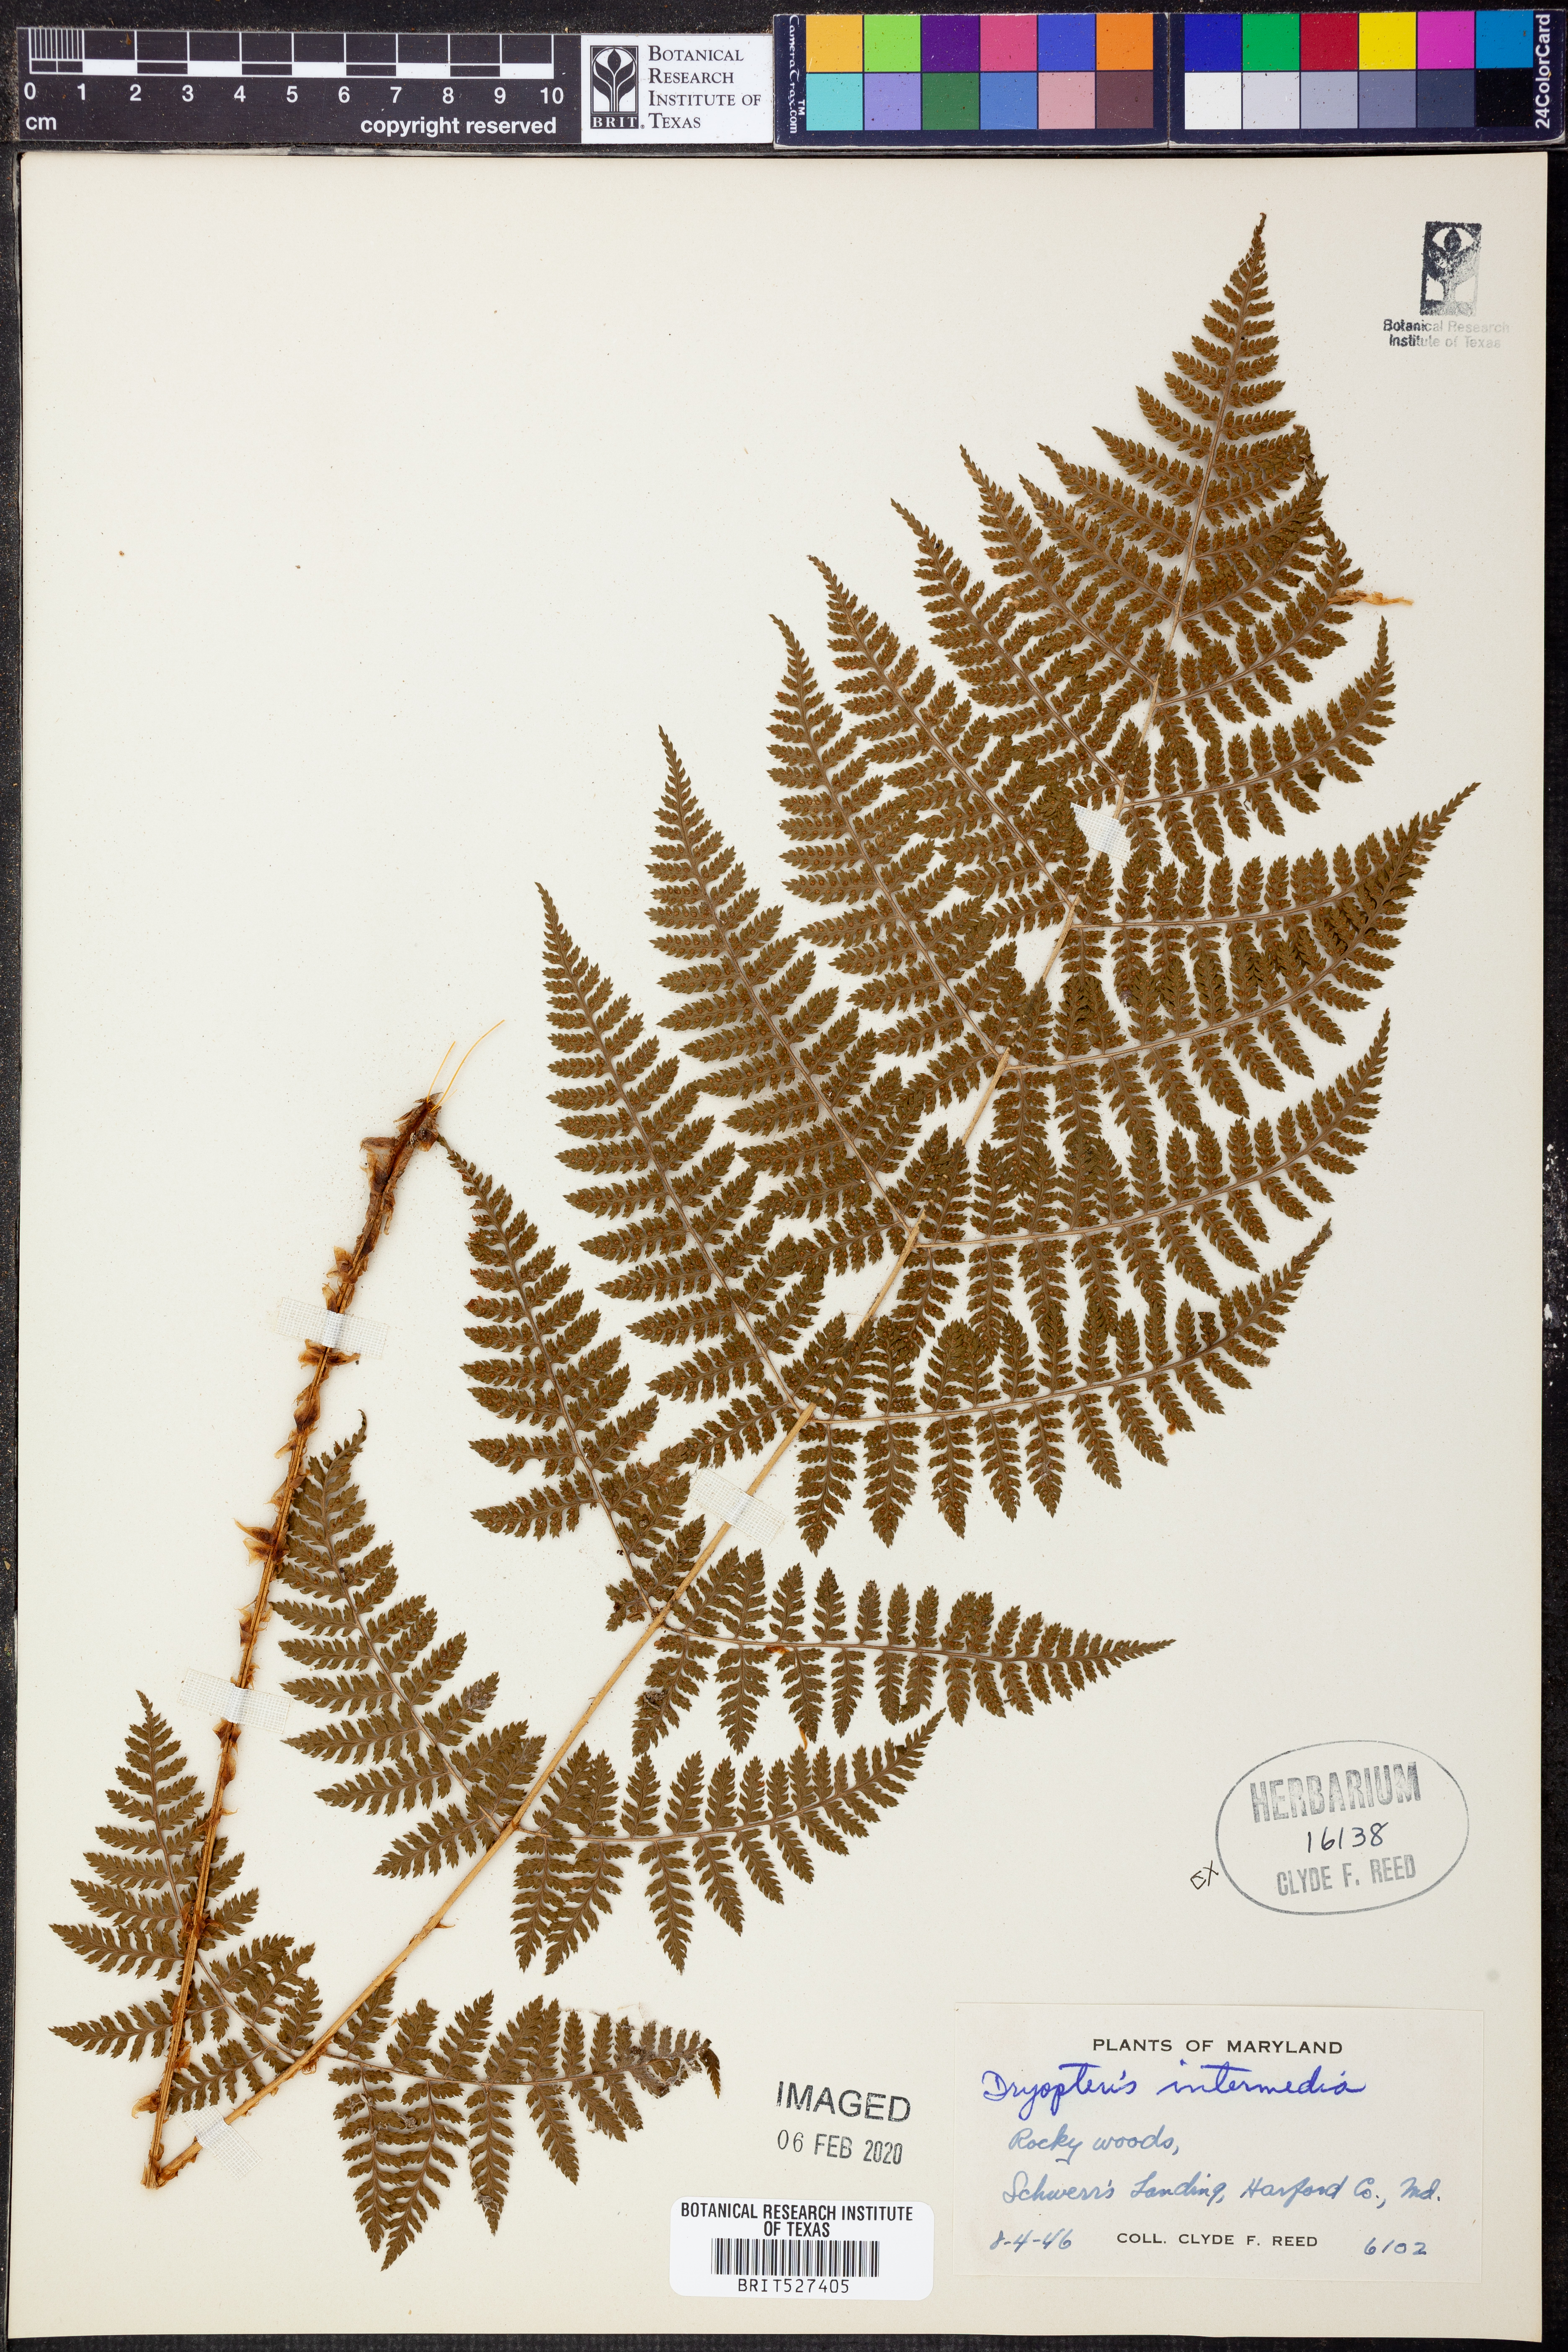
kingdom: Plantae
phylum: Tracheophyta
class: Polypodiopsida
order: Polypodiales
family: Dryopteridaceae
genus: Dryopteris
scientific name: Dryopteris intermedia
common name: Evergreen wood fern
